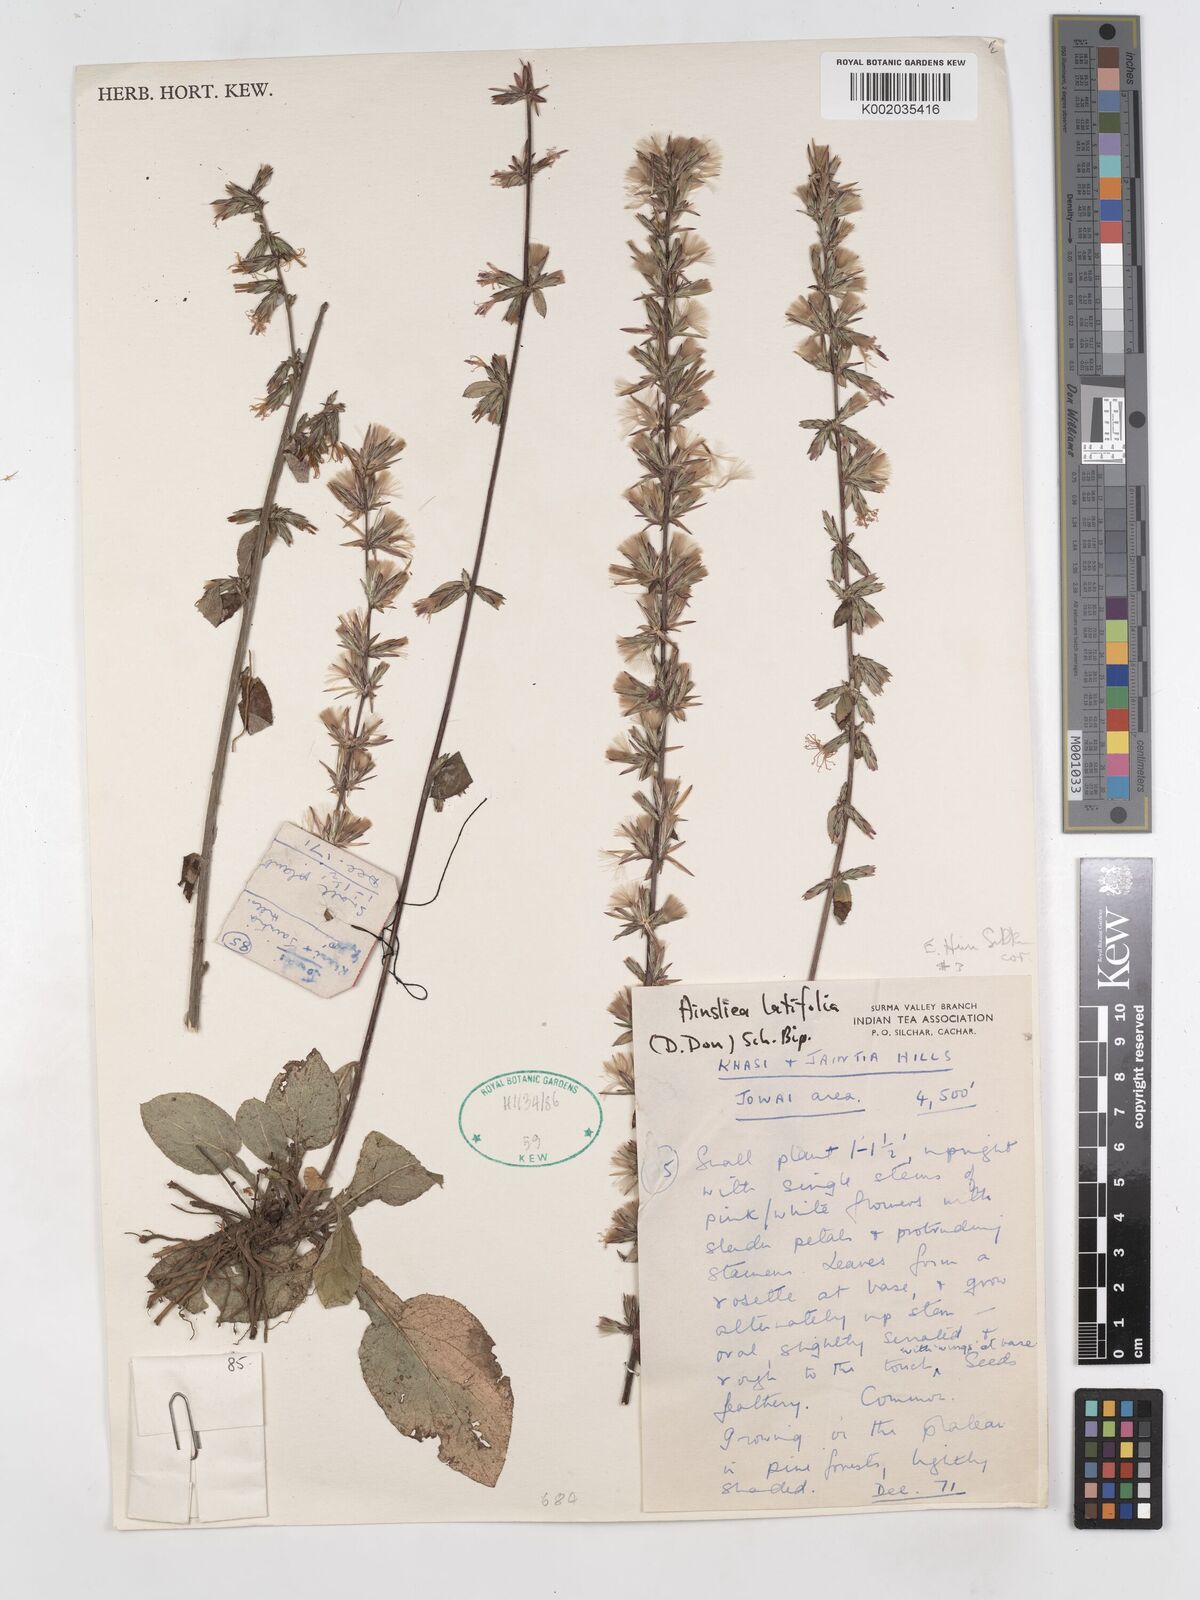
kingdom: Plantae
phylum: Tracheophyta
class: Magnoliopsida
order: Asterales
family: Asteraceae
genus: Ainsliaea
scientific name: Ainsliaea latifolia
